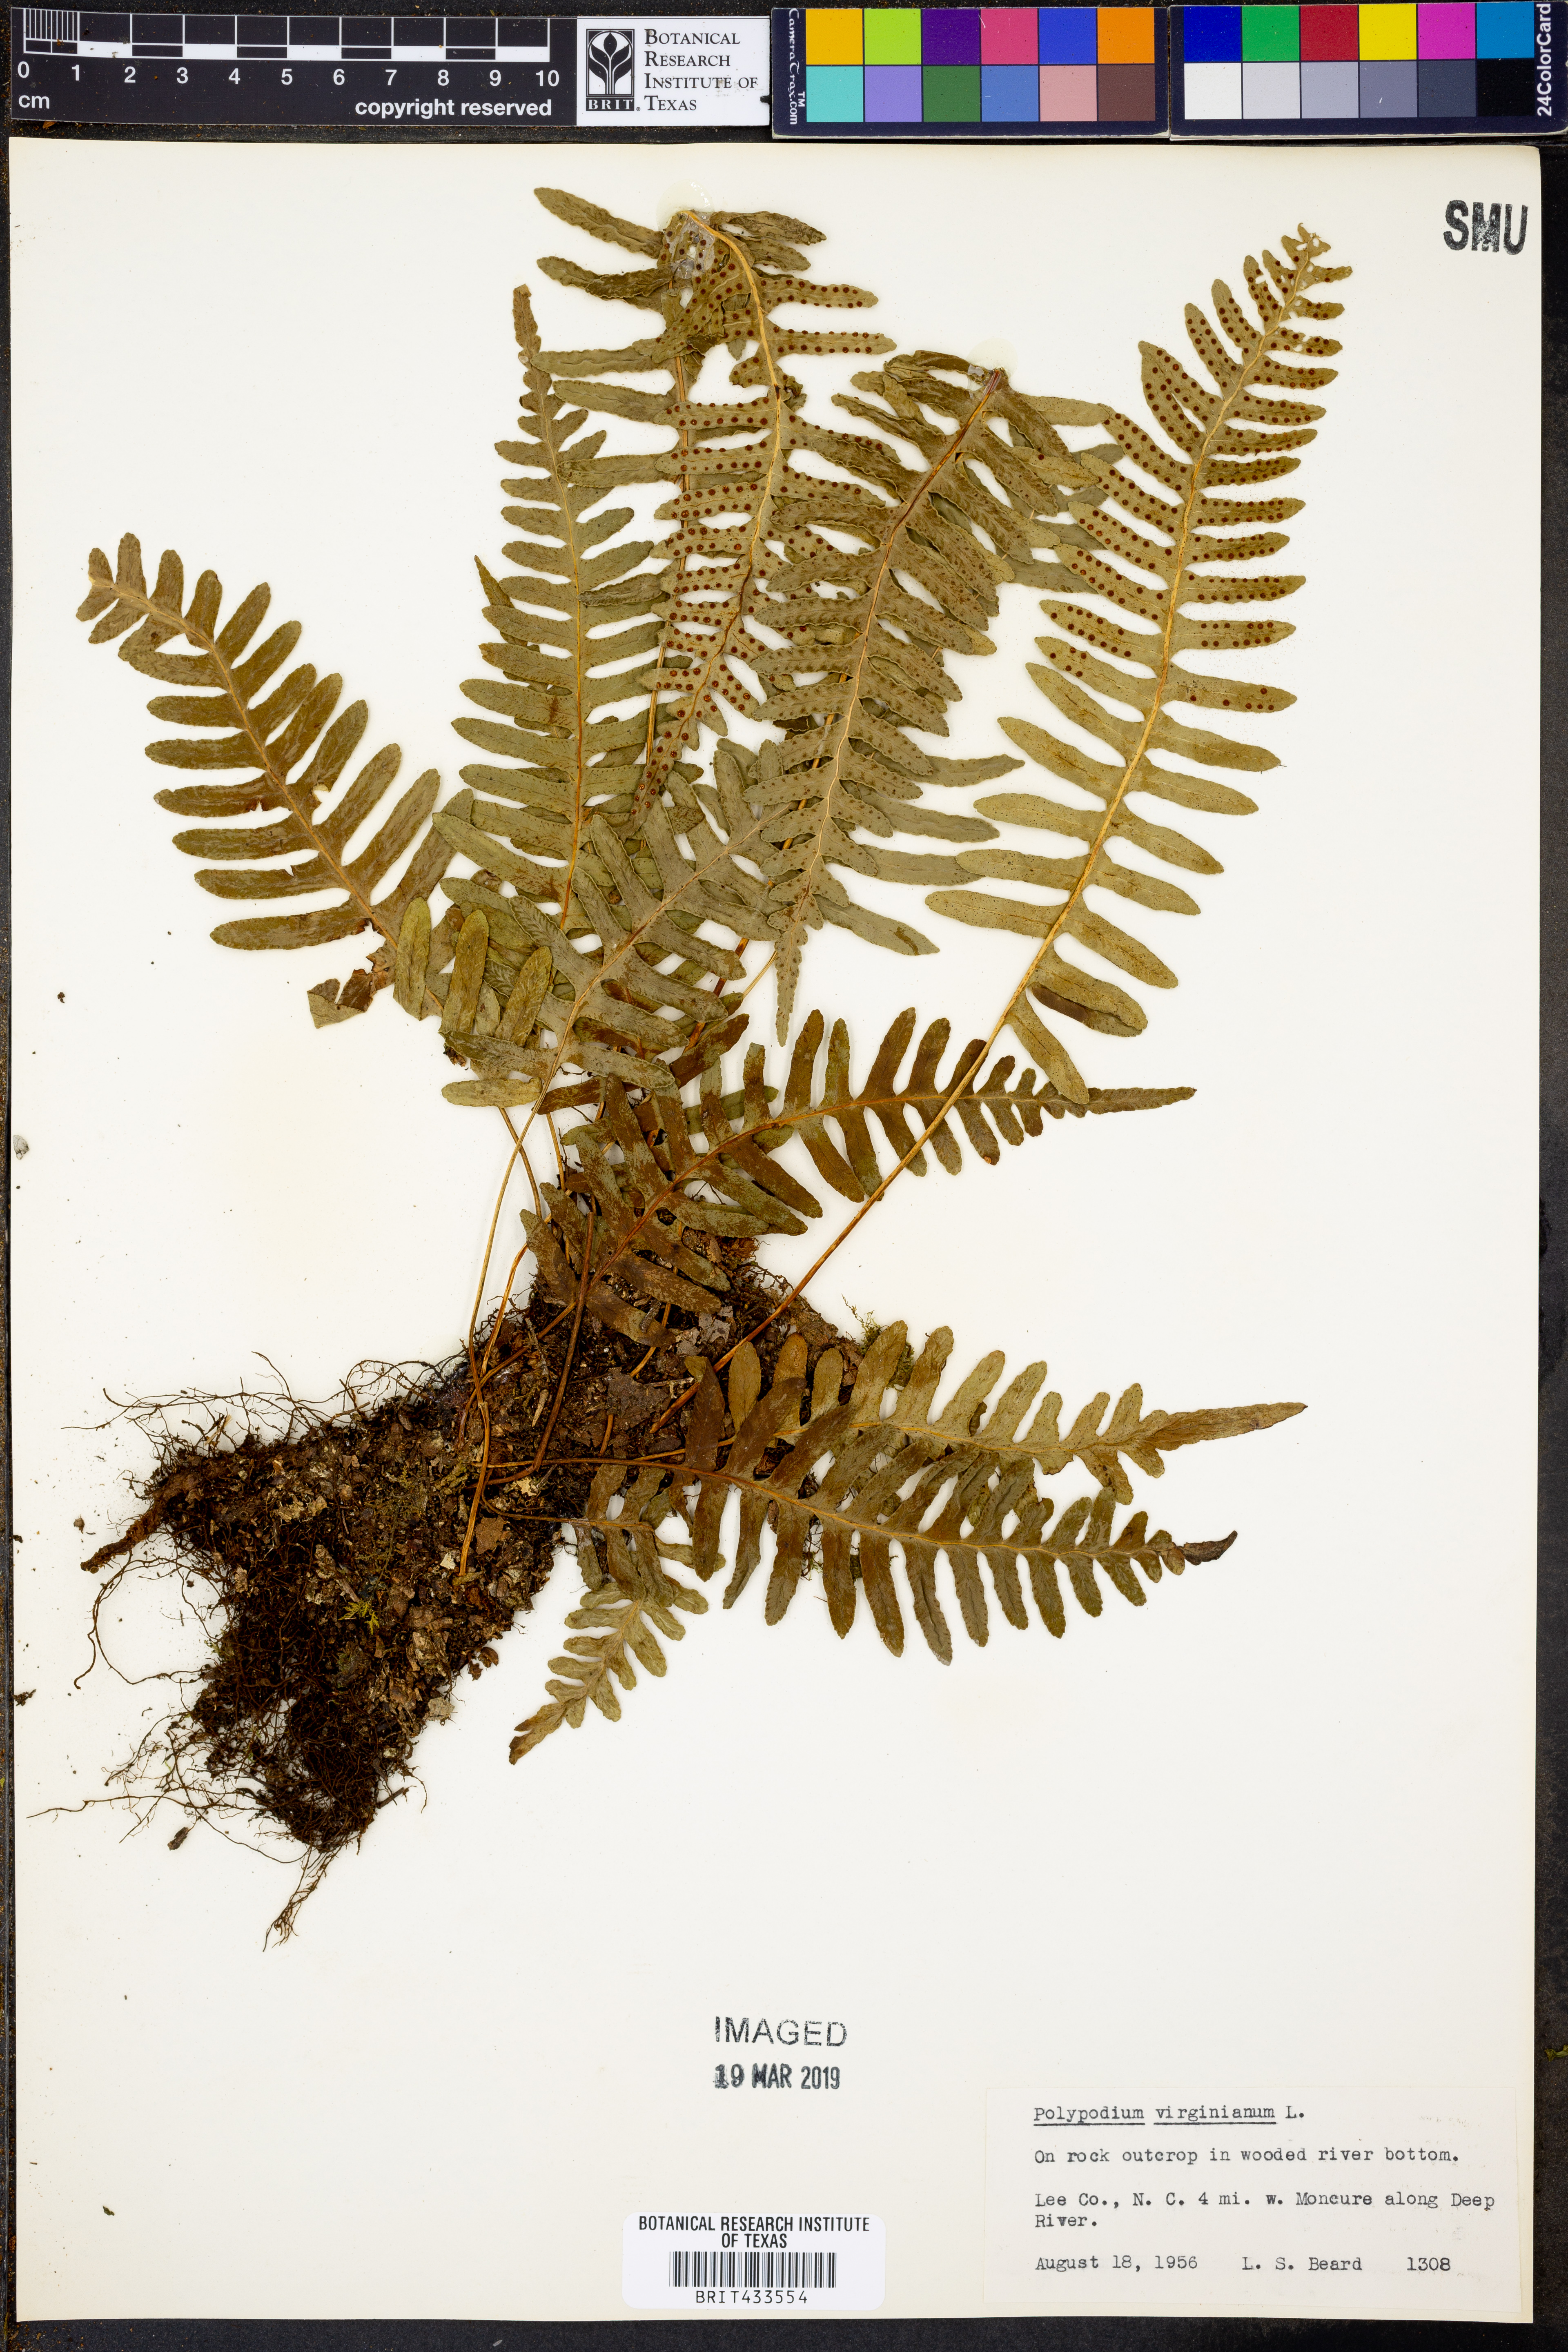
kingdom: Plantae
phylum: Tracheophyta
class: Polypodiopsida
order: Polypodiales
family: Polypodiaceae
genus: Polypodium
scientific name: Polypodium virginianum
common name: American wall fern
